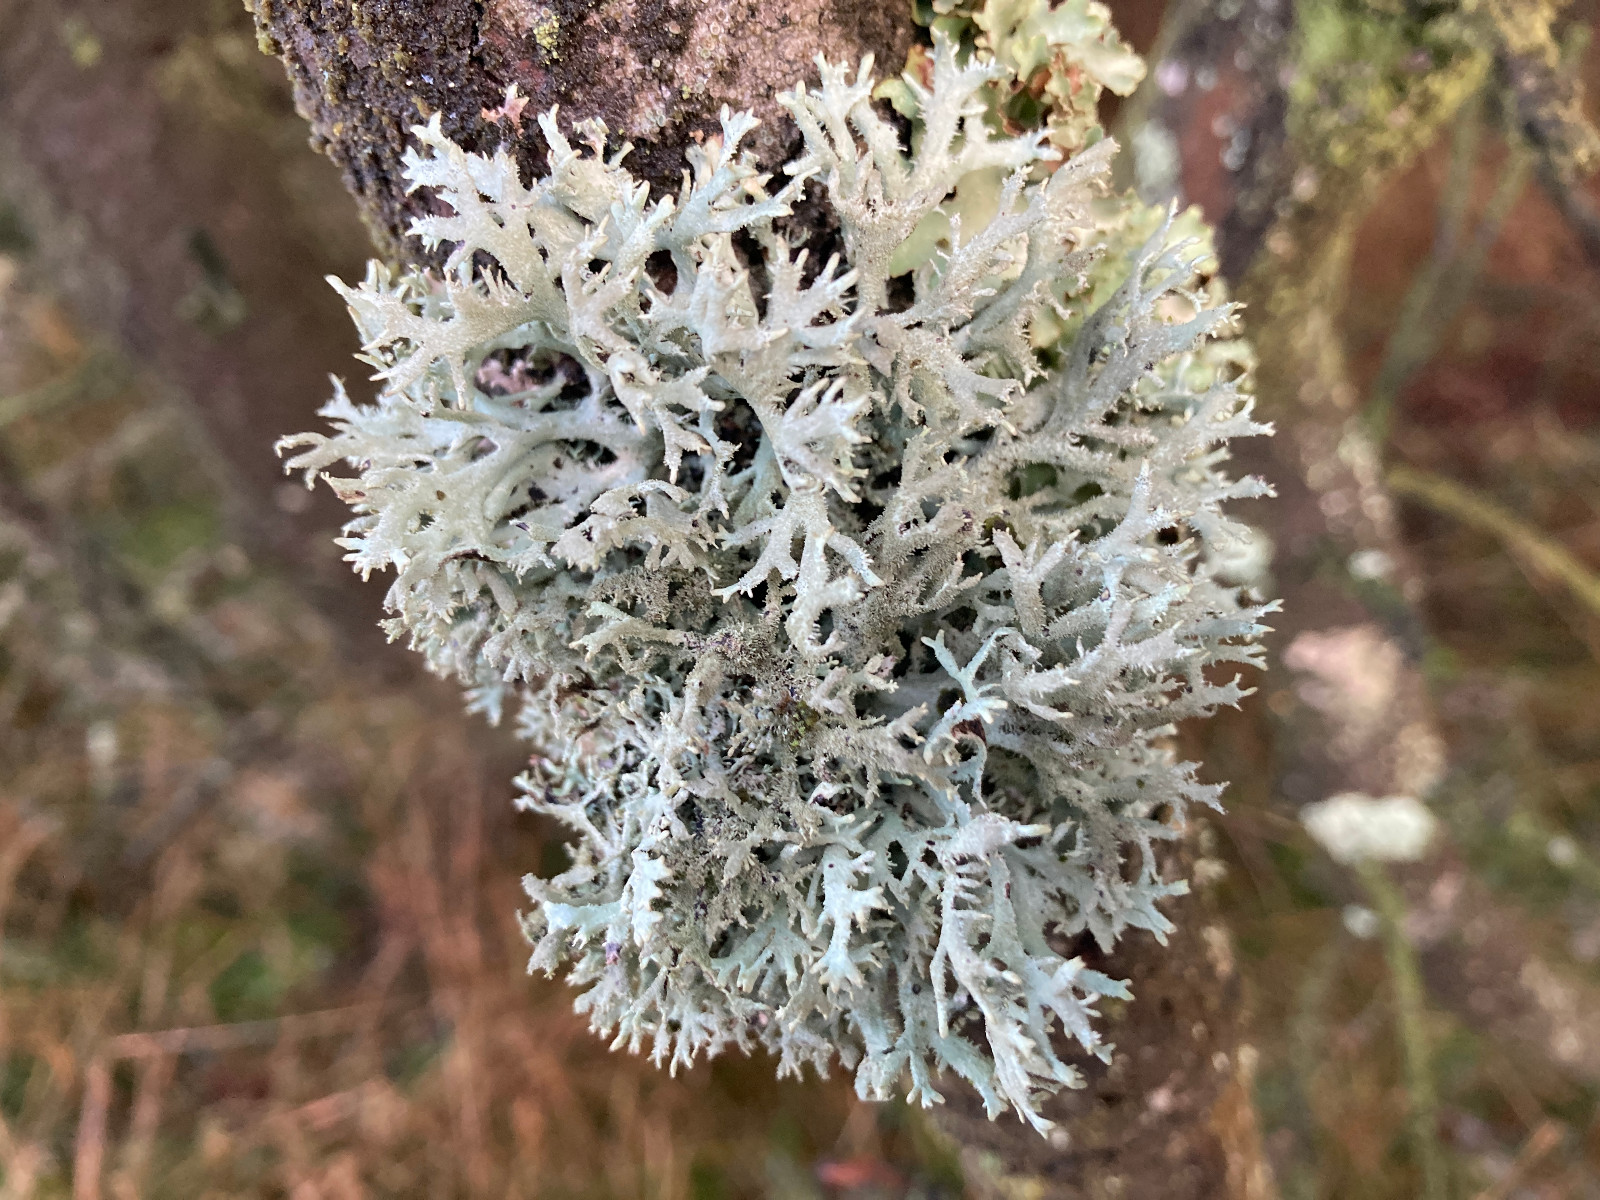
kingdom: Fungi
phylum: Ascomycota
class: Lecanoromycetes
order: Lecanorales
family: Parmeliaceae
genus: Pseudevernia
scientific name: Pseudevernia furfuracea
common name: grå fyrrelav
